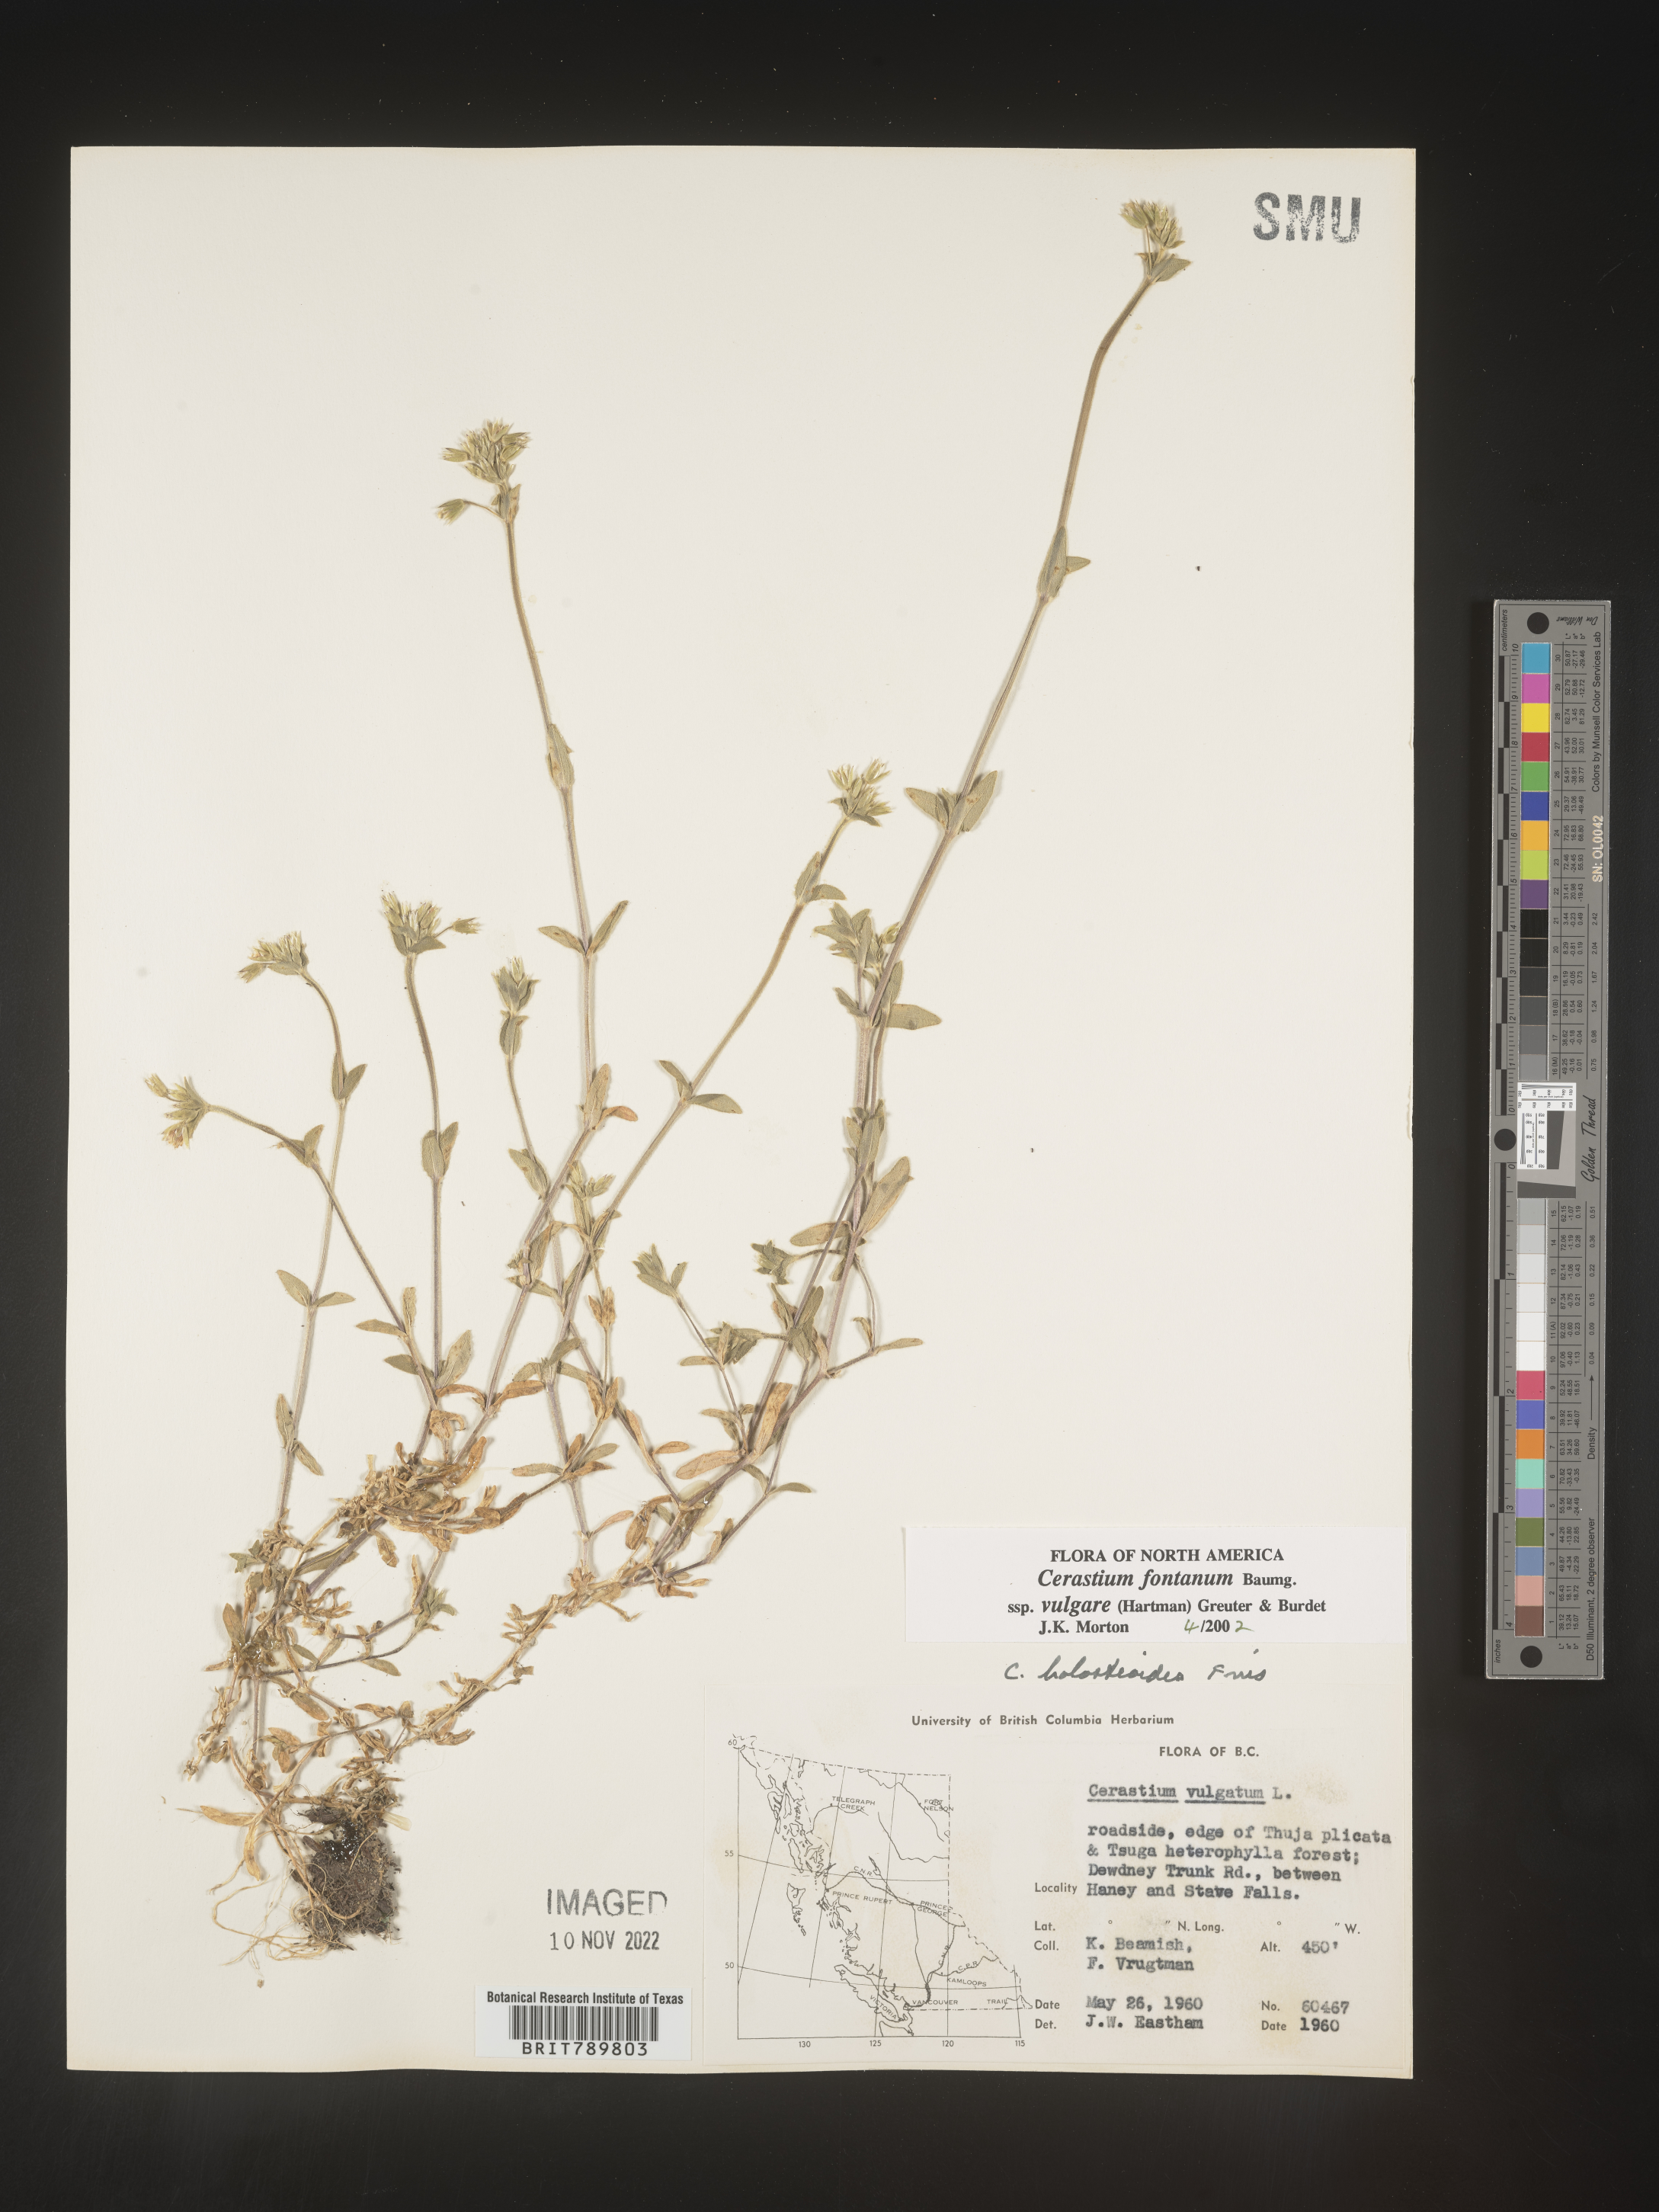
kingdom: Plantae
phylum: Tracheophyta
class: Magnoliopsida
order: Caryophyllales
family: Caryophyllaceae
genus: Cerastium
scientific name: Cerastium fontanum
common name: Common mouse-ear
